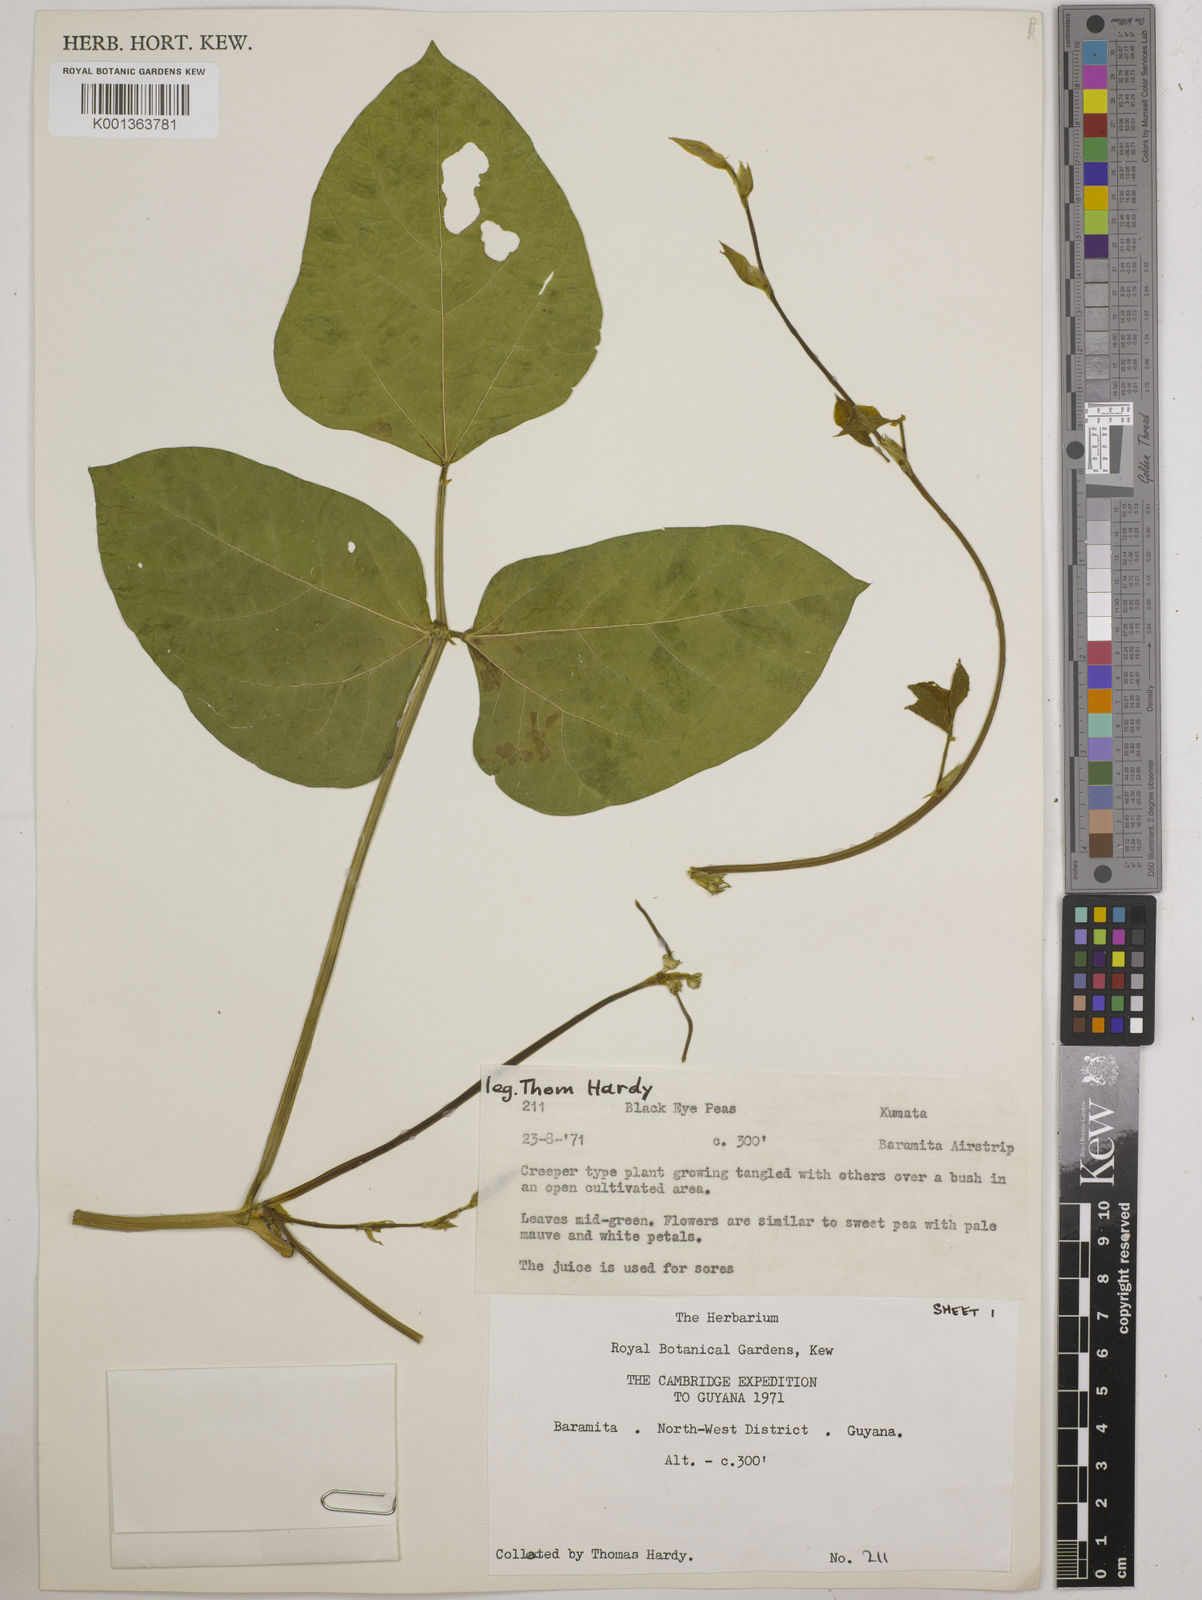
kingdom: Plantae
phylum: Tracheophyta
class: Magnoliopsida
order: Fabales
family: Fabaceae
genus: Vigna
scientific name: Vigna unguiculata
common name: Cowpea
